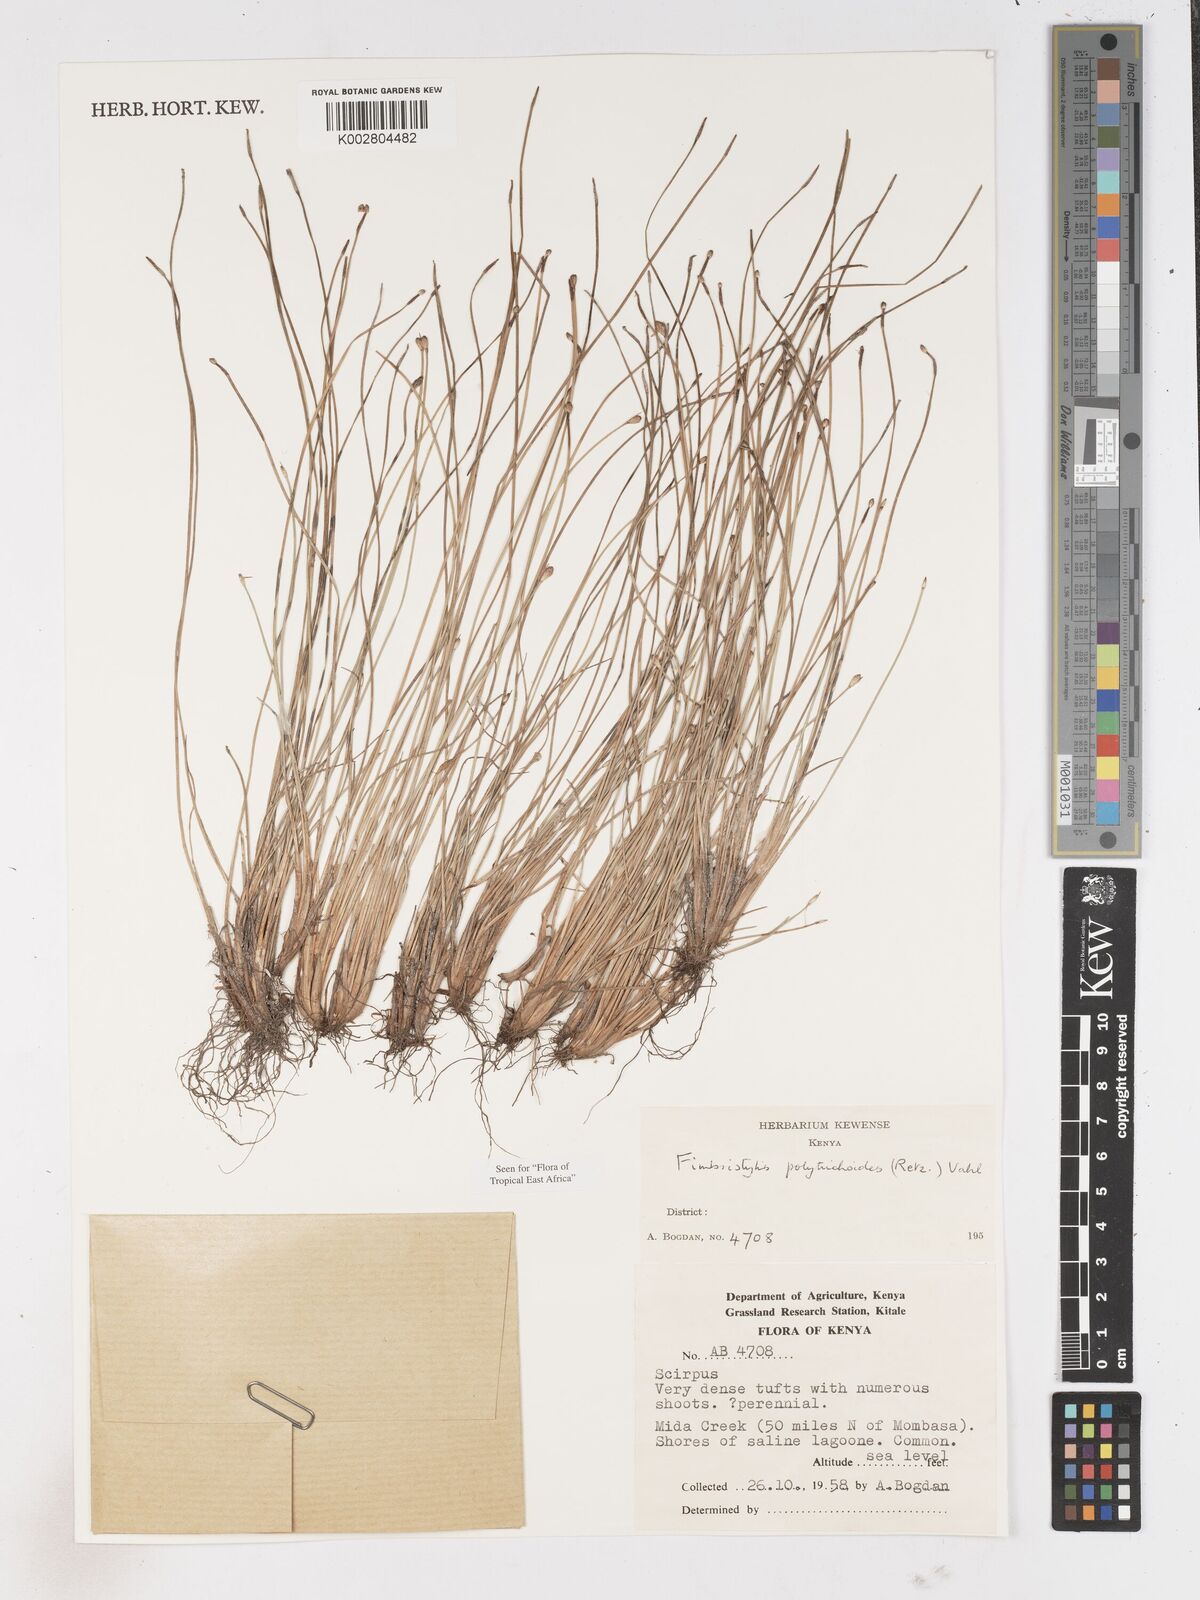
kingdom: Plantae
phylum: Tracheophyta
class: Liliopsida
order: Poales
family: Cyperaceae
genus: Fimbristylis
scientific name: Fimbristylis polytrichoides
